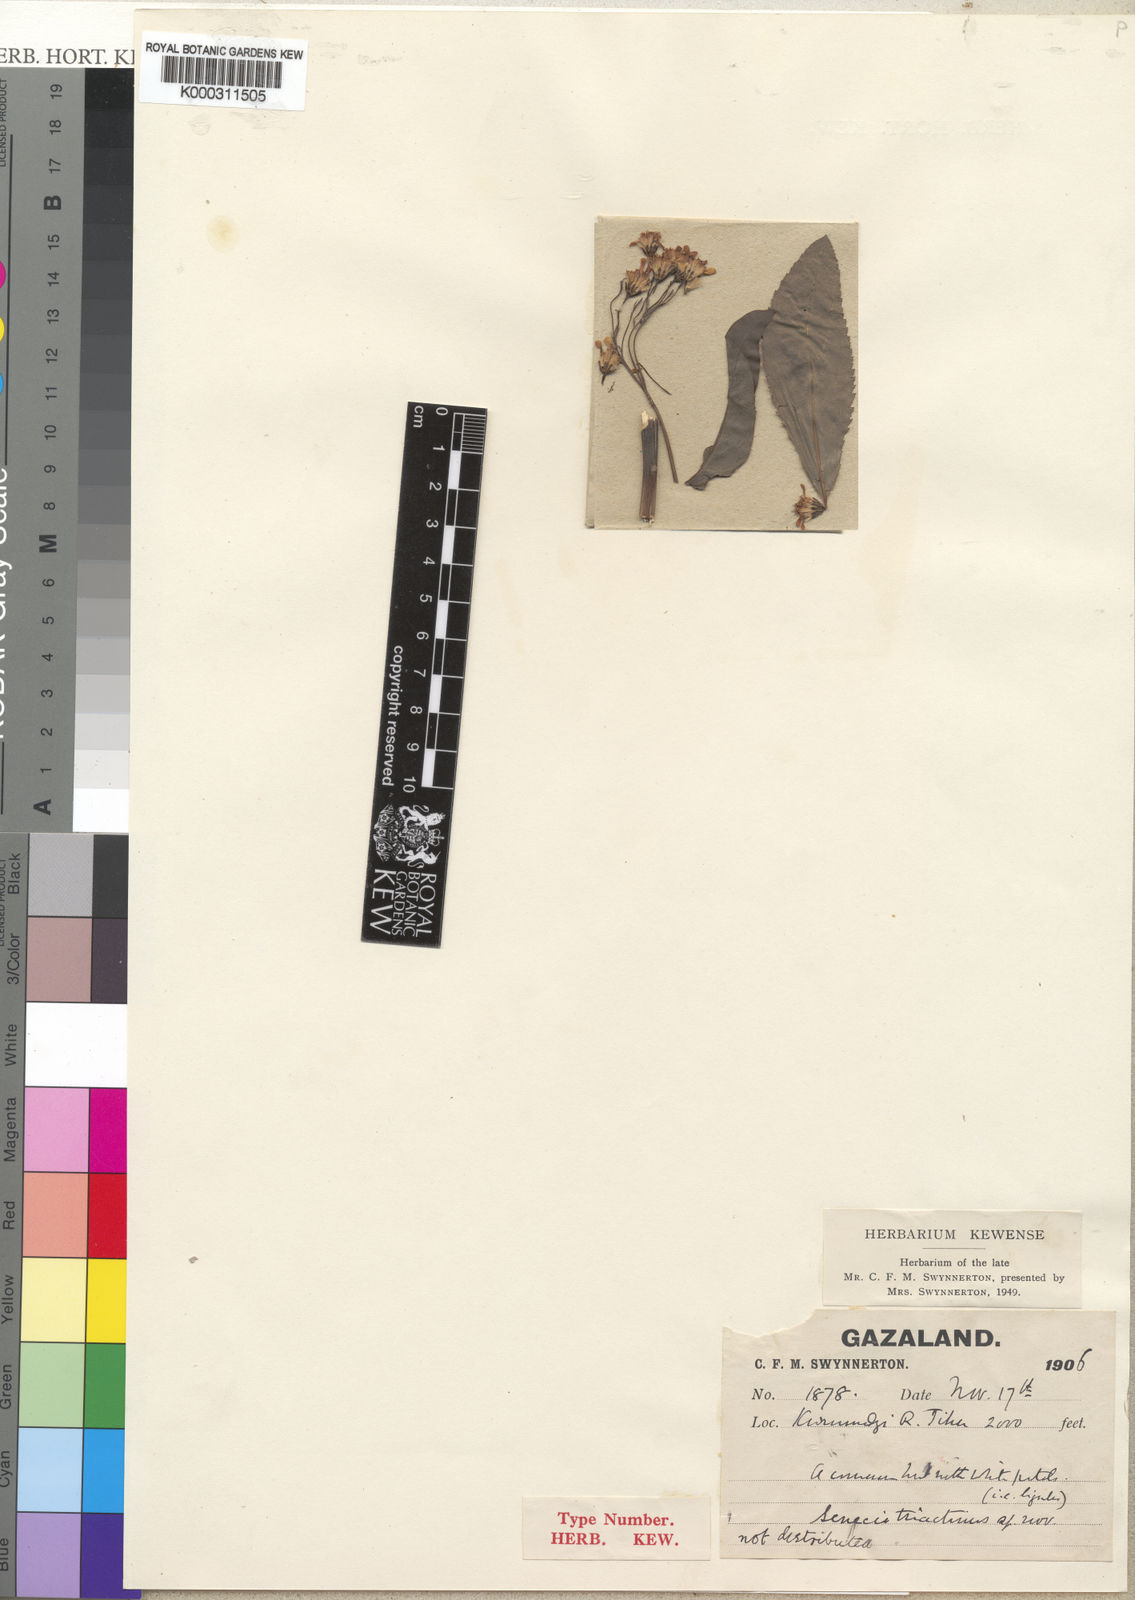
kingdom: Plantae
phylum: Tracheophyta
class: Magnoliopsida
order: Asterales
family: Asteraceae
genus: Senecio
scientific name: Senecio triactinus
